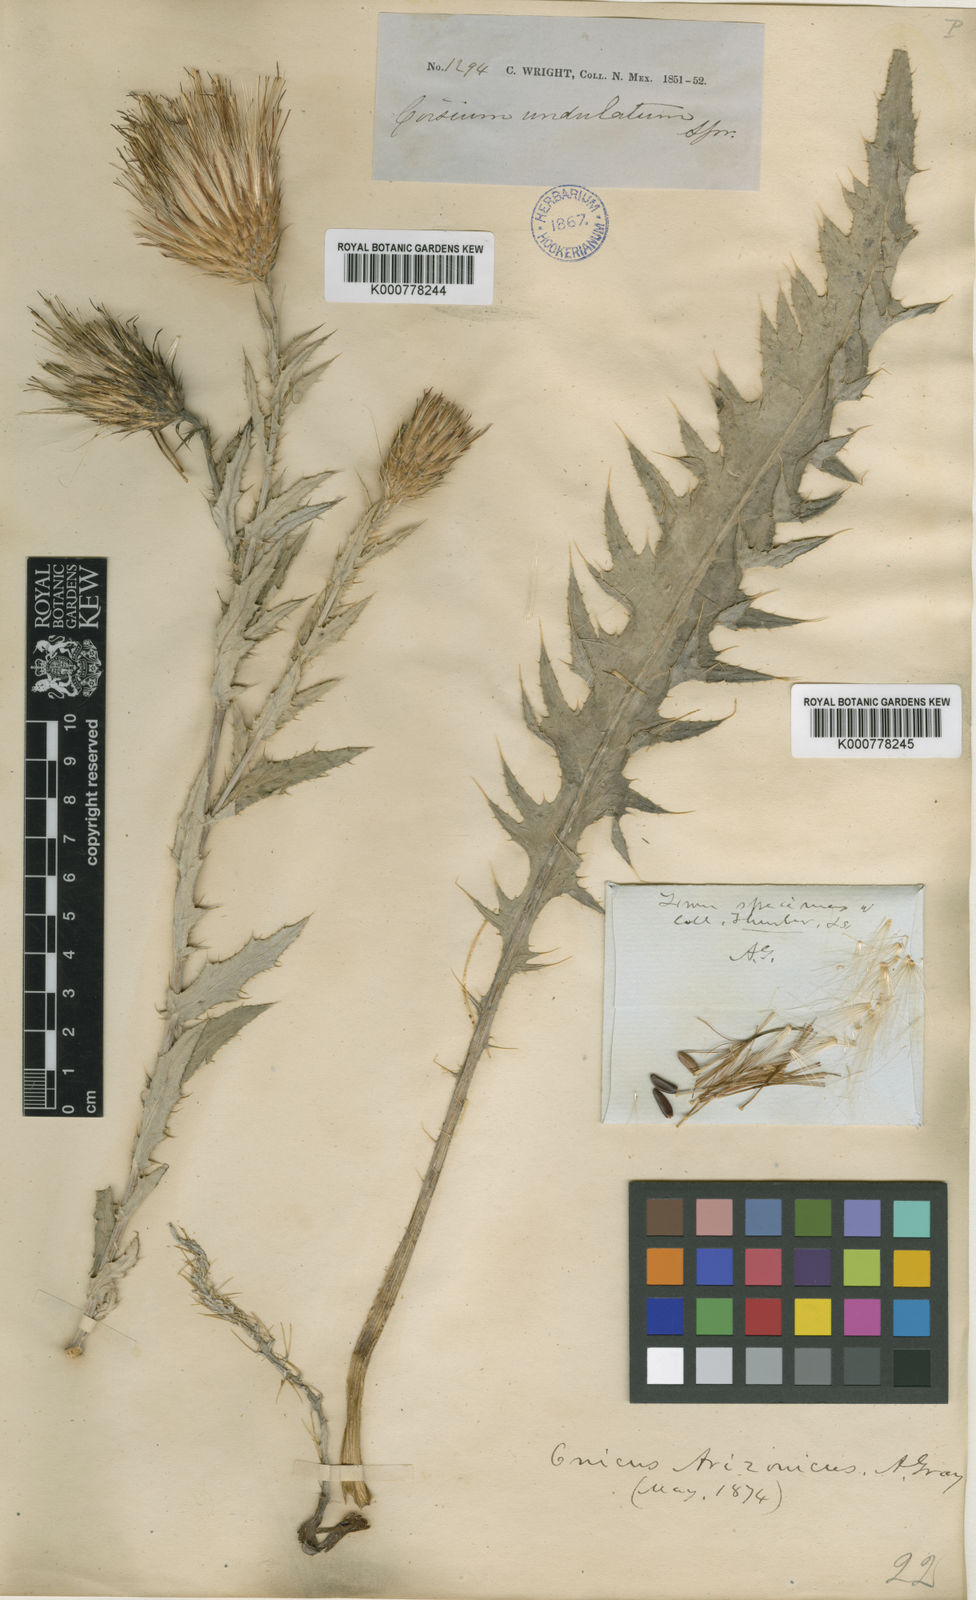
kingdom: Plantae
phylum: Tracheophyta
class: Magnoliopsida
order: Asterales
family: Asteraceae
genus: Cirsium
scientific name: Cirsium arizonicum
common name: Arizona thistle
